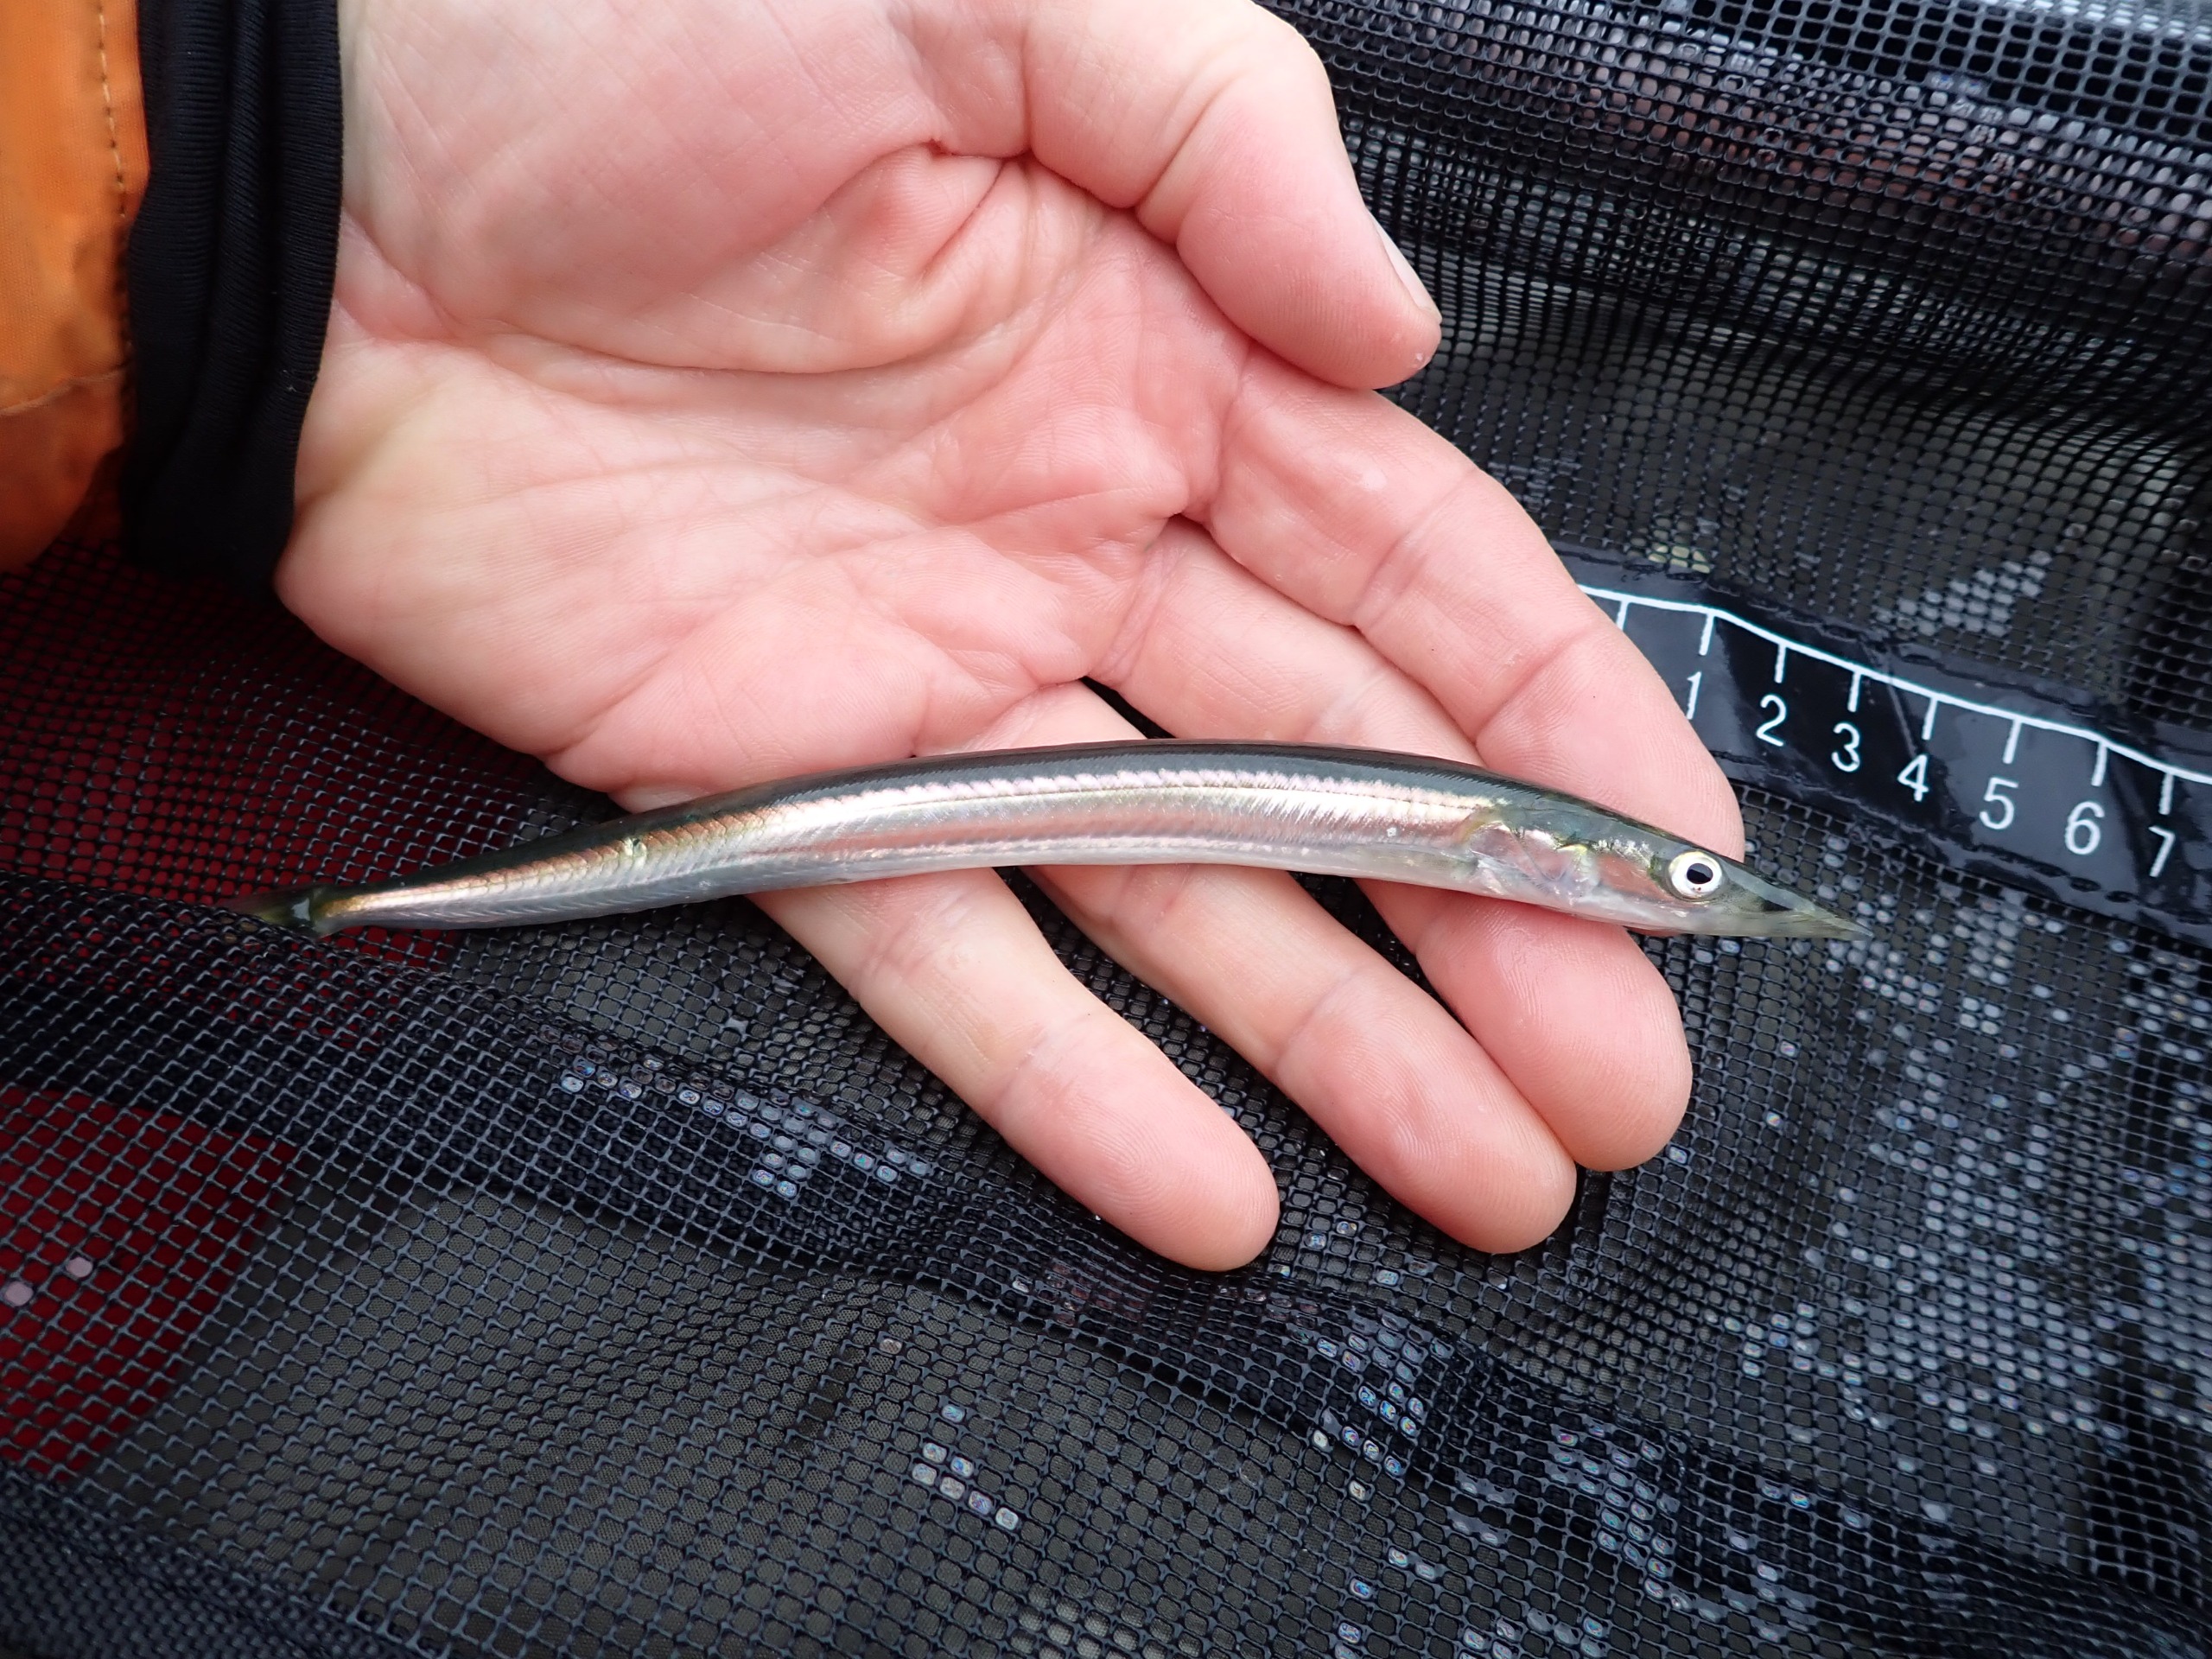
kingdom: Animalia
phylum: Chordata
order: Perciformes
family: Ammodytidae
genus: Hyperoplus
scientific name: Hyperoplus lanceolatus
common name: Plettet tobiskonge
